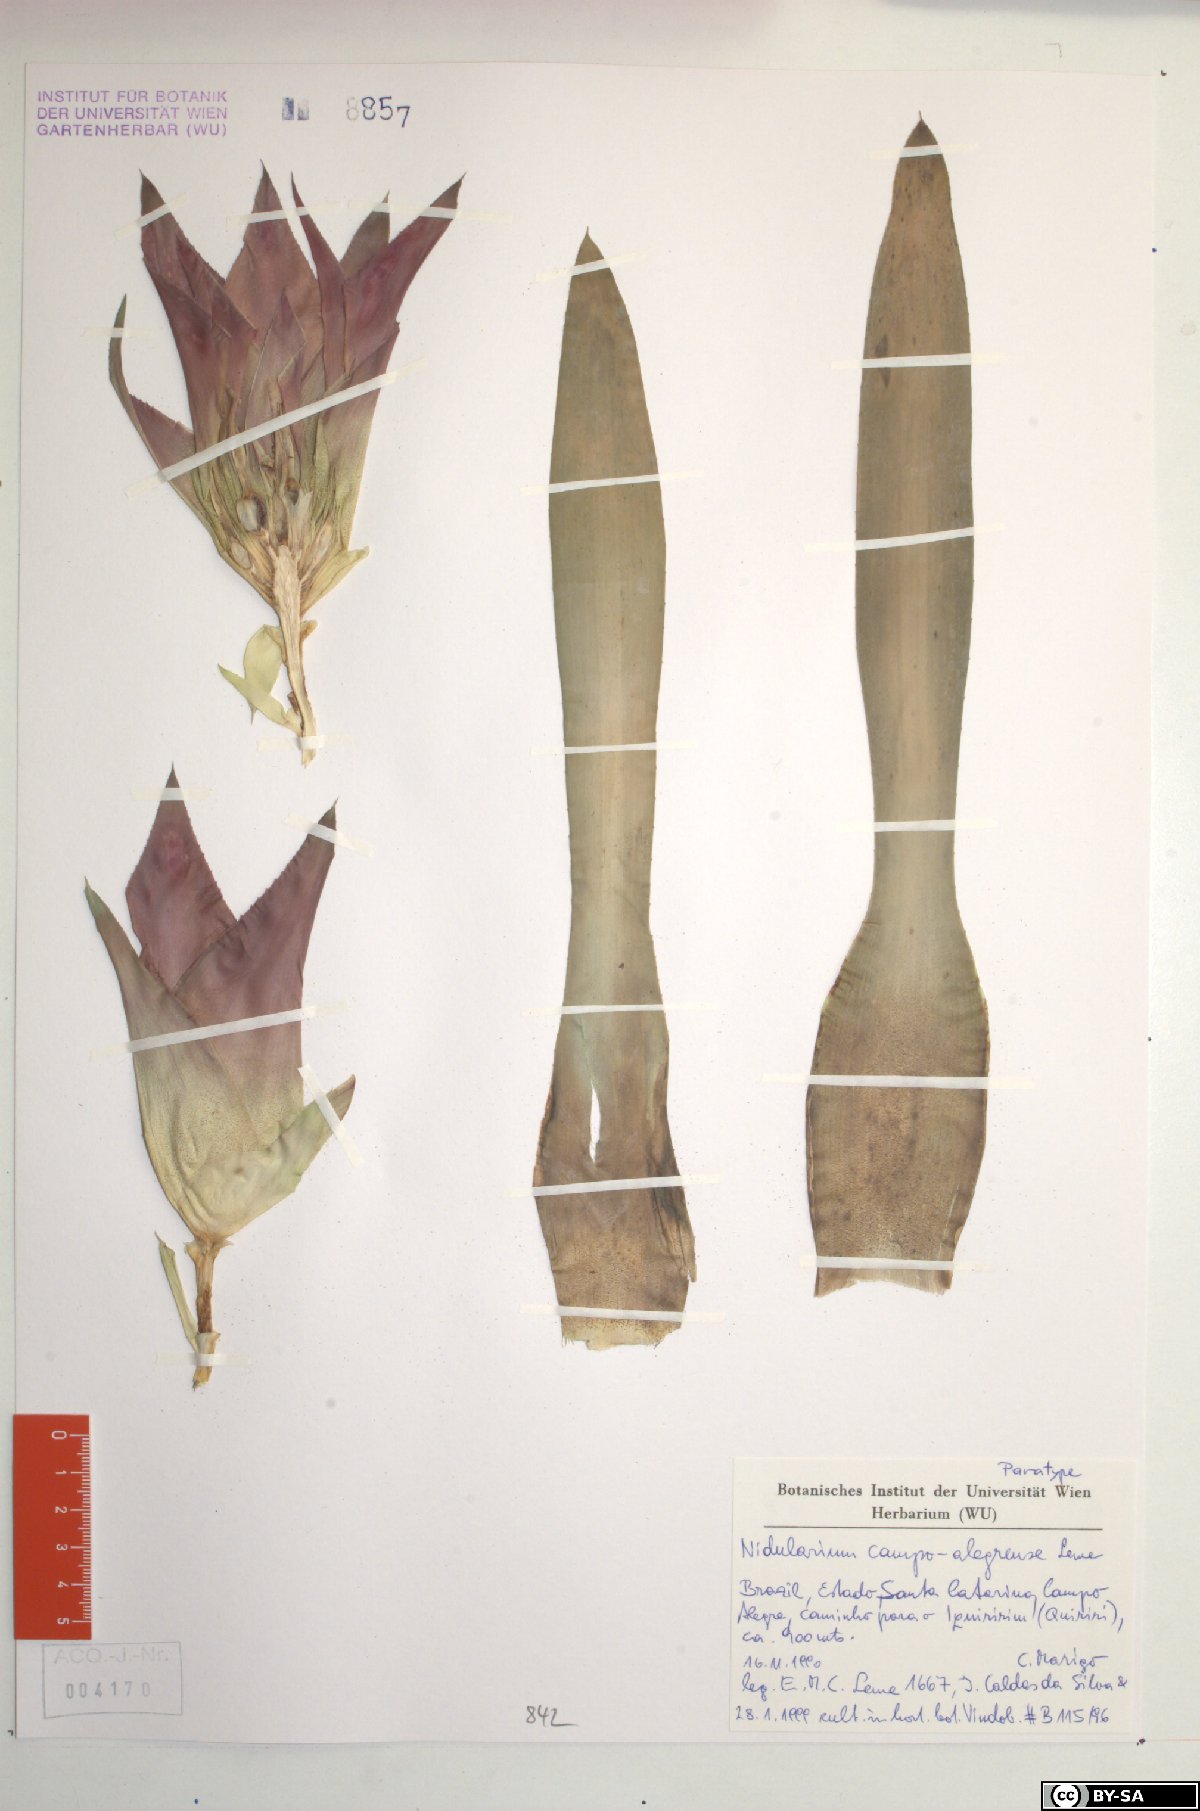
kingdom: Plantae
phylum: Tracheophyta
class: Liliopsida
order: Poales
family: Bromeliaceae
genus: Nidularium
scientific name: Nidularium campo-alegrense
